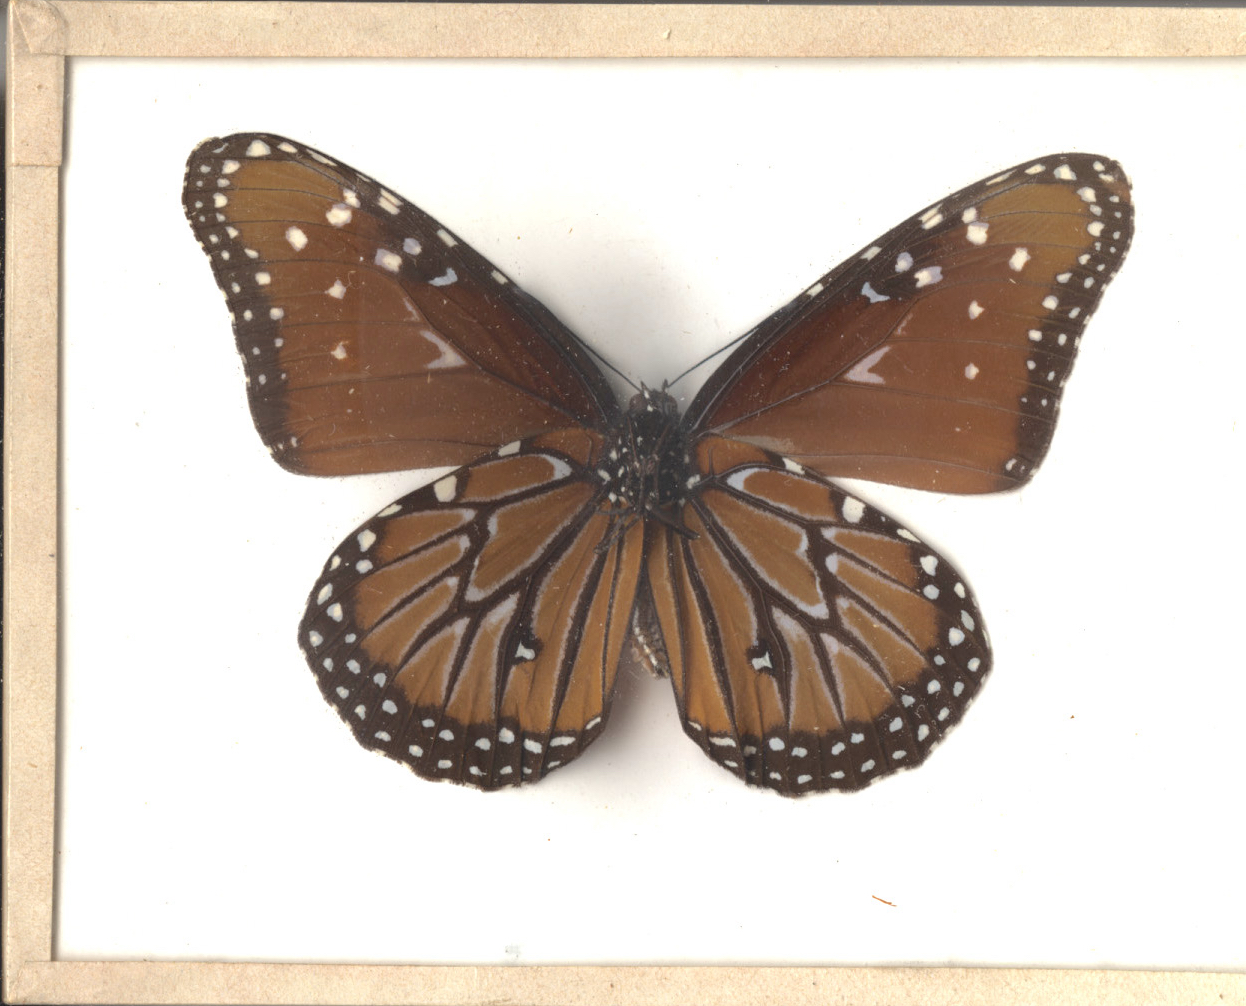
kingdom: Animalia
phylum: Arthropoda
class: Insecta
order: Lepidoptera
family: Nymphalidae
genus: Danaus
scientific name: Danaus gilippus
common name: Queen
